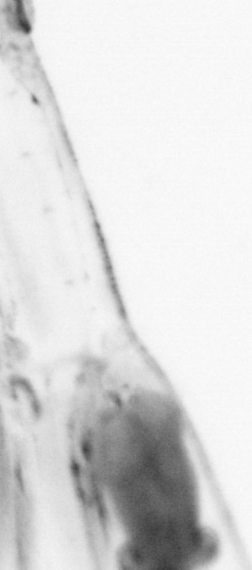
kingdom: Animalia
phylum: Chaetognatha
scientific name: Chaetognatha
